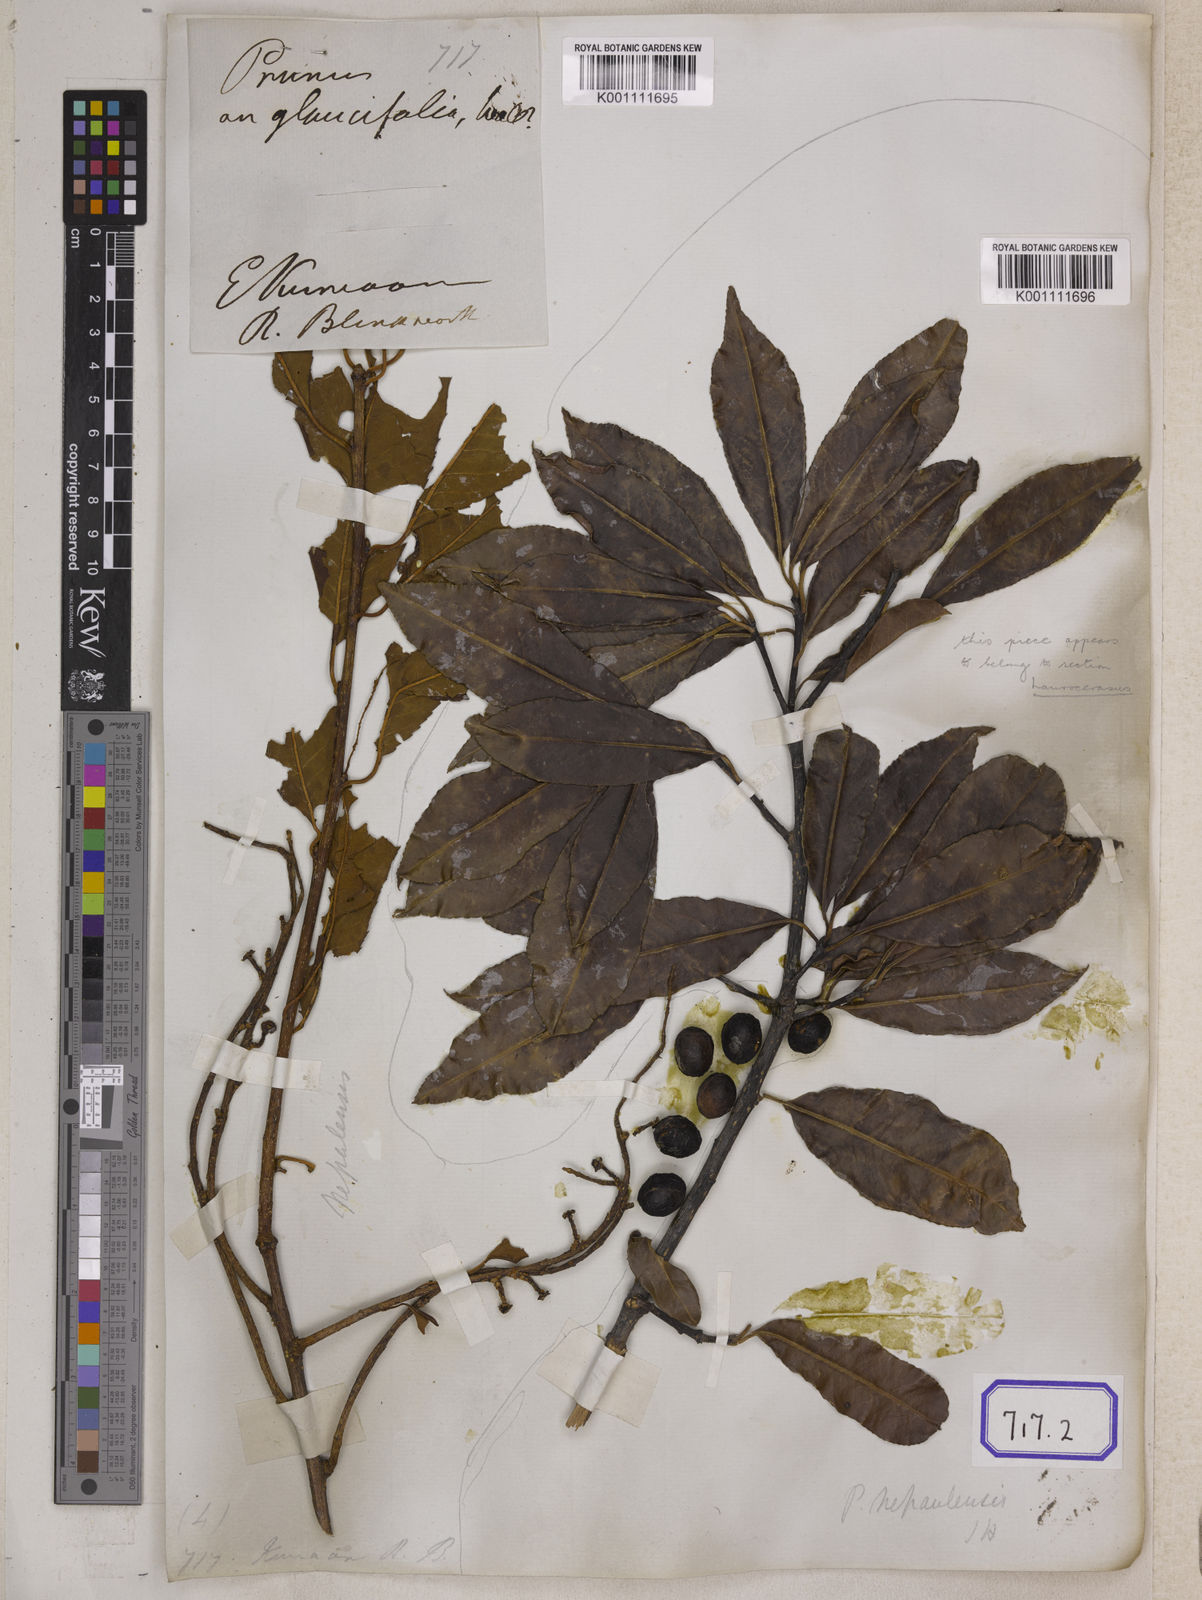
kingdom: Plantae
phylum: Tracheophyta
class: Magnoliopsida
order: Rosales
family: Rosaceae
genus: Prunus
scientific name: Prunus napaulensis
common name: Khasia cherry
